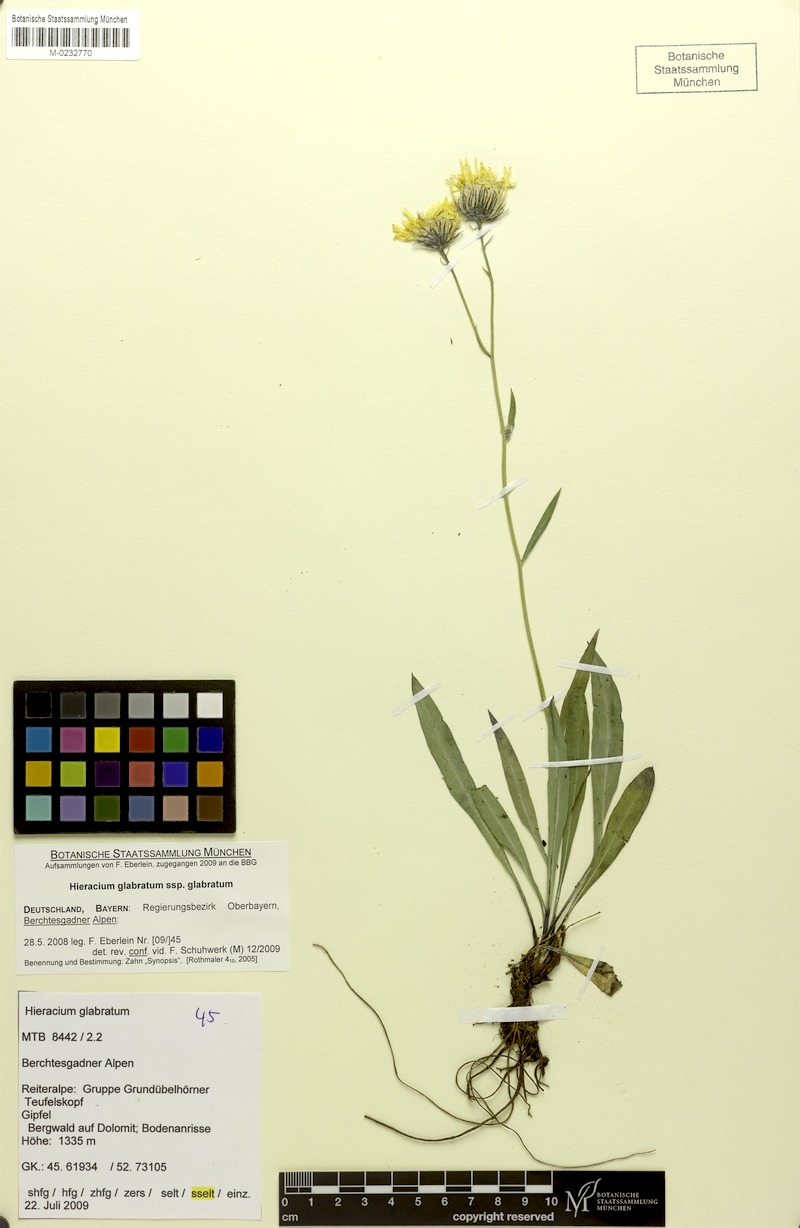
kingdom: Plantae
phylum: Tracheophyta
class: Magnoliopsida
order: Asterales
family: Asteraceae
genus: Hieracium
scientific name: Hieracium glabratum
